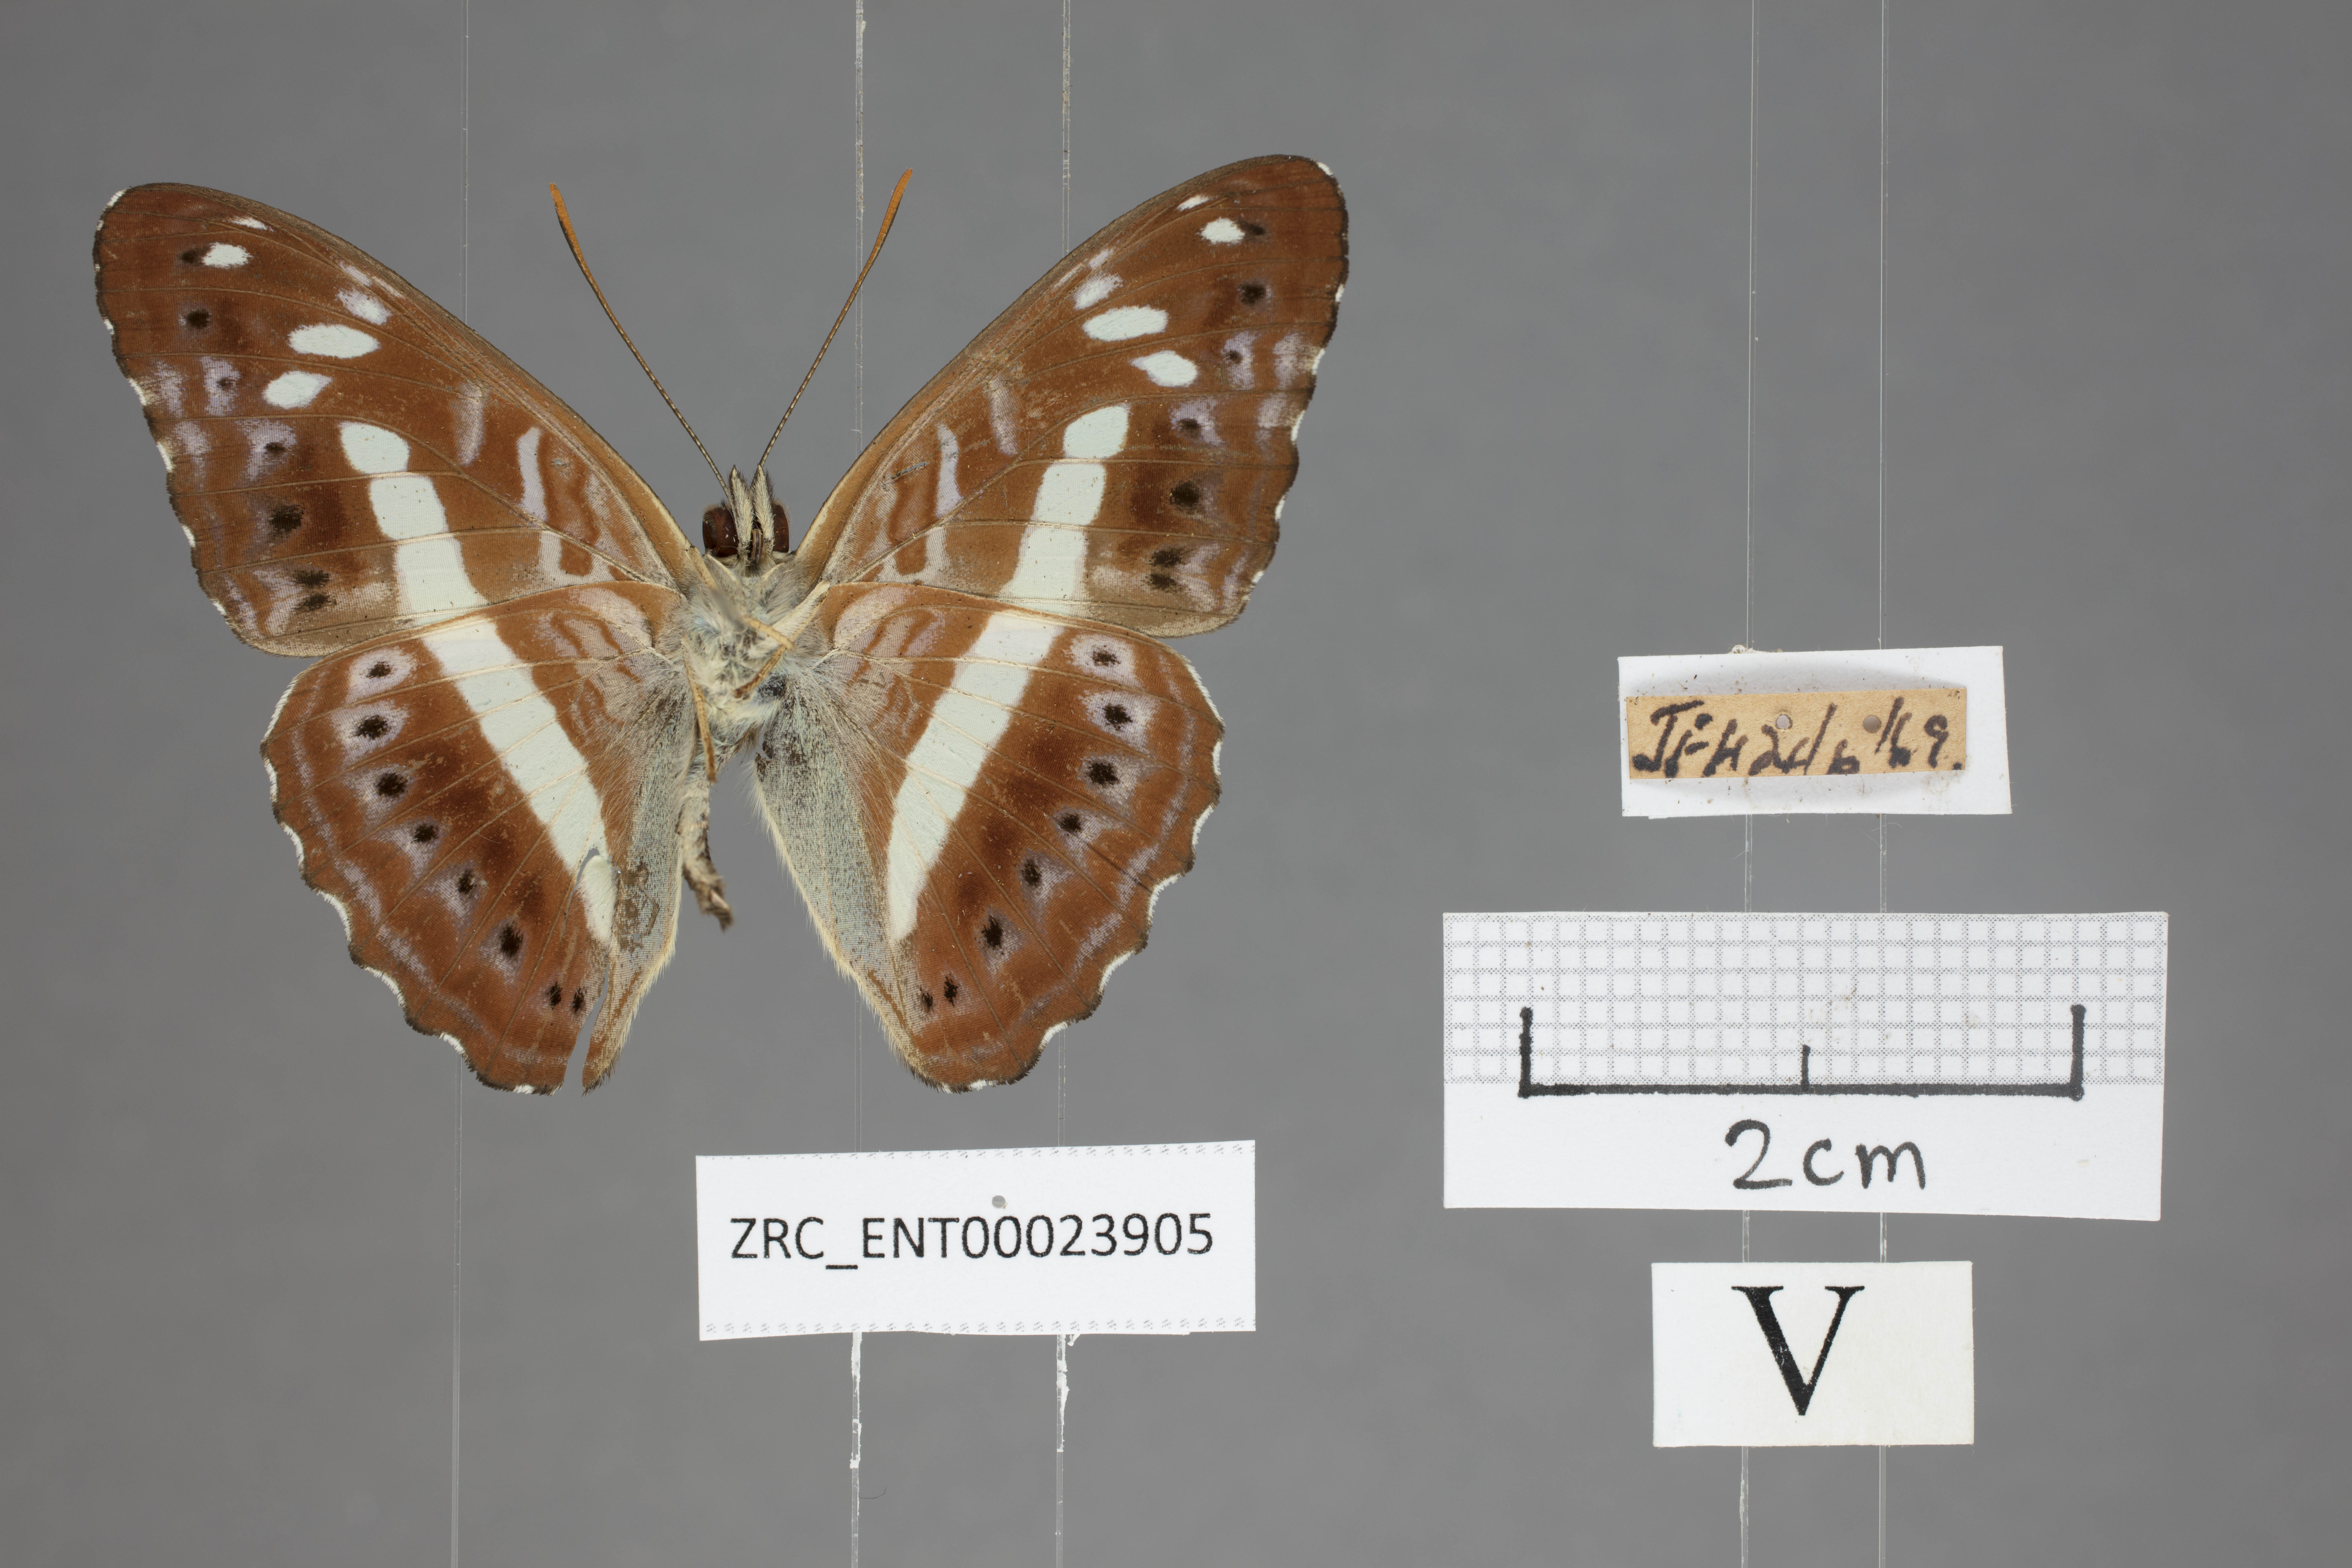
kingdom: Animalia
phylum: Arthropoda
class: Insecta
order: Lepidoptera
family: Nymphalidae
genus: Limenitis
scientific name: Limenitis
